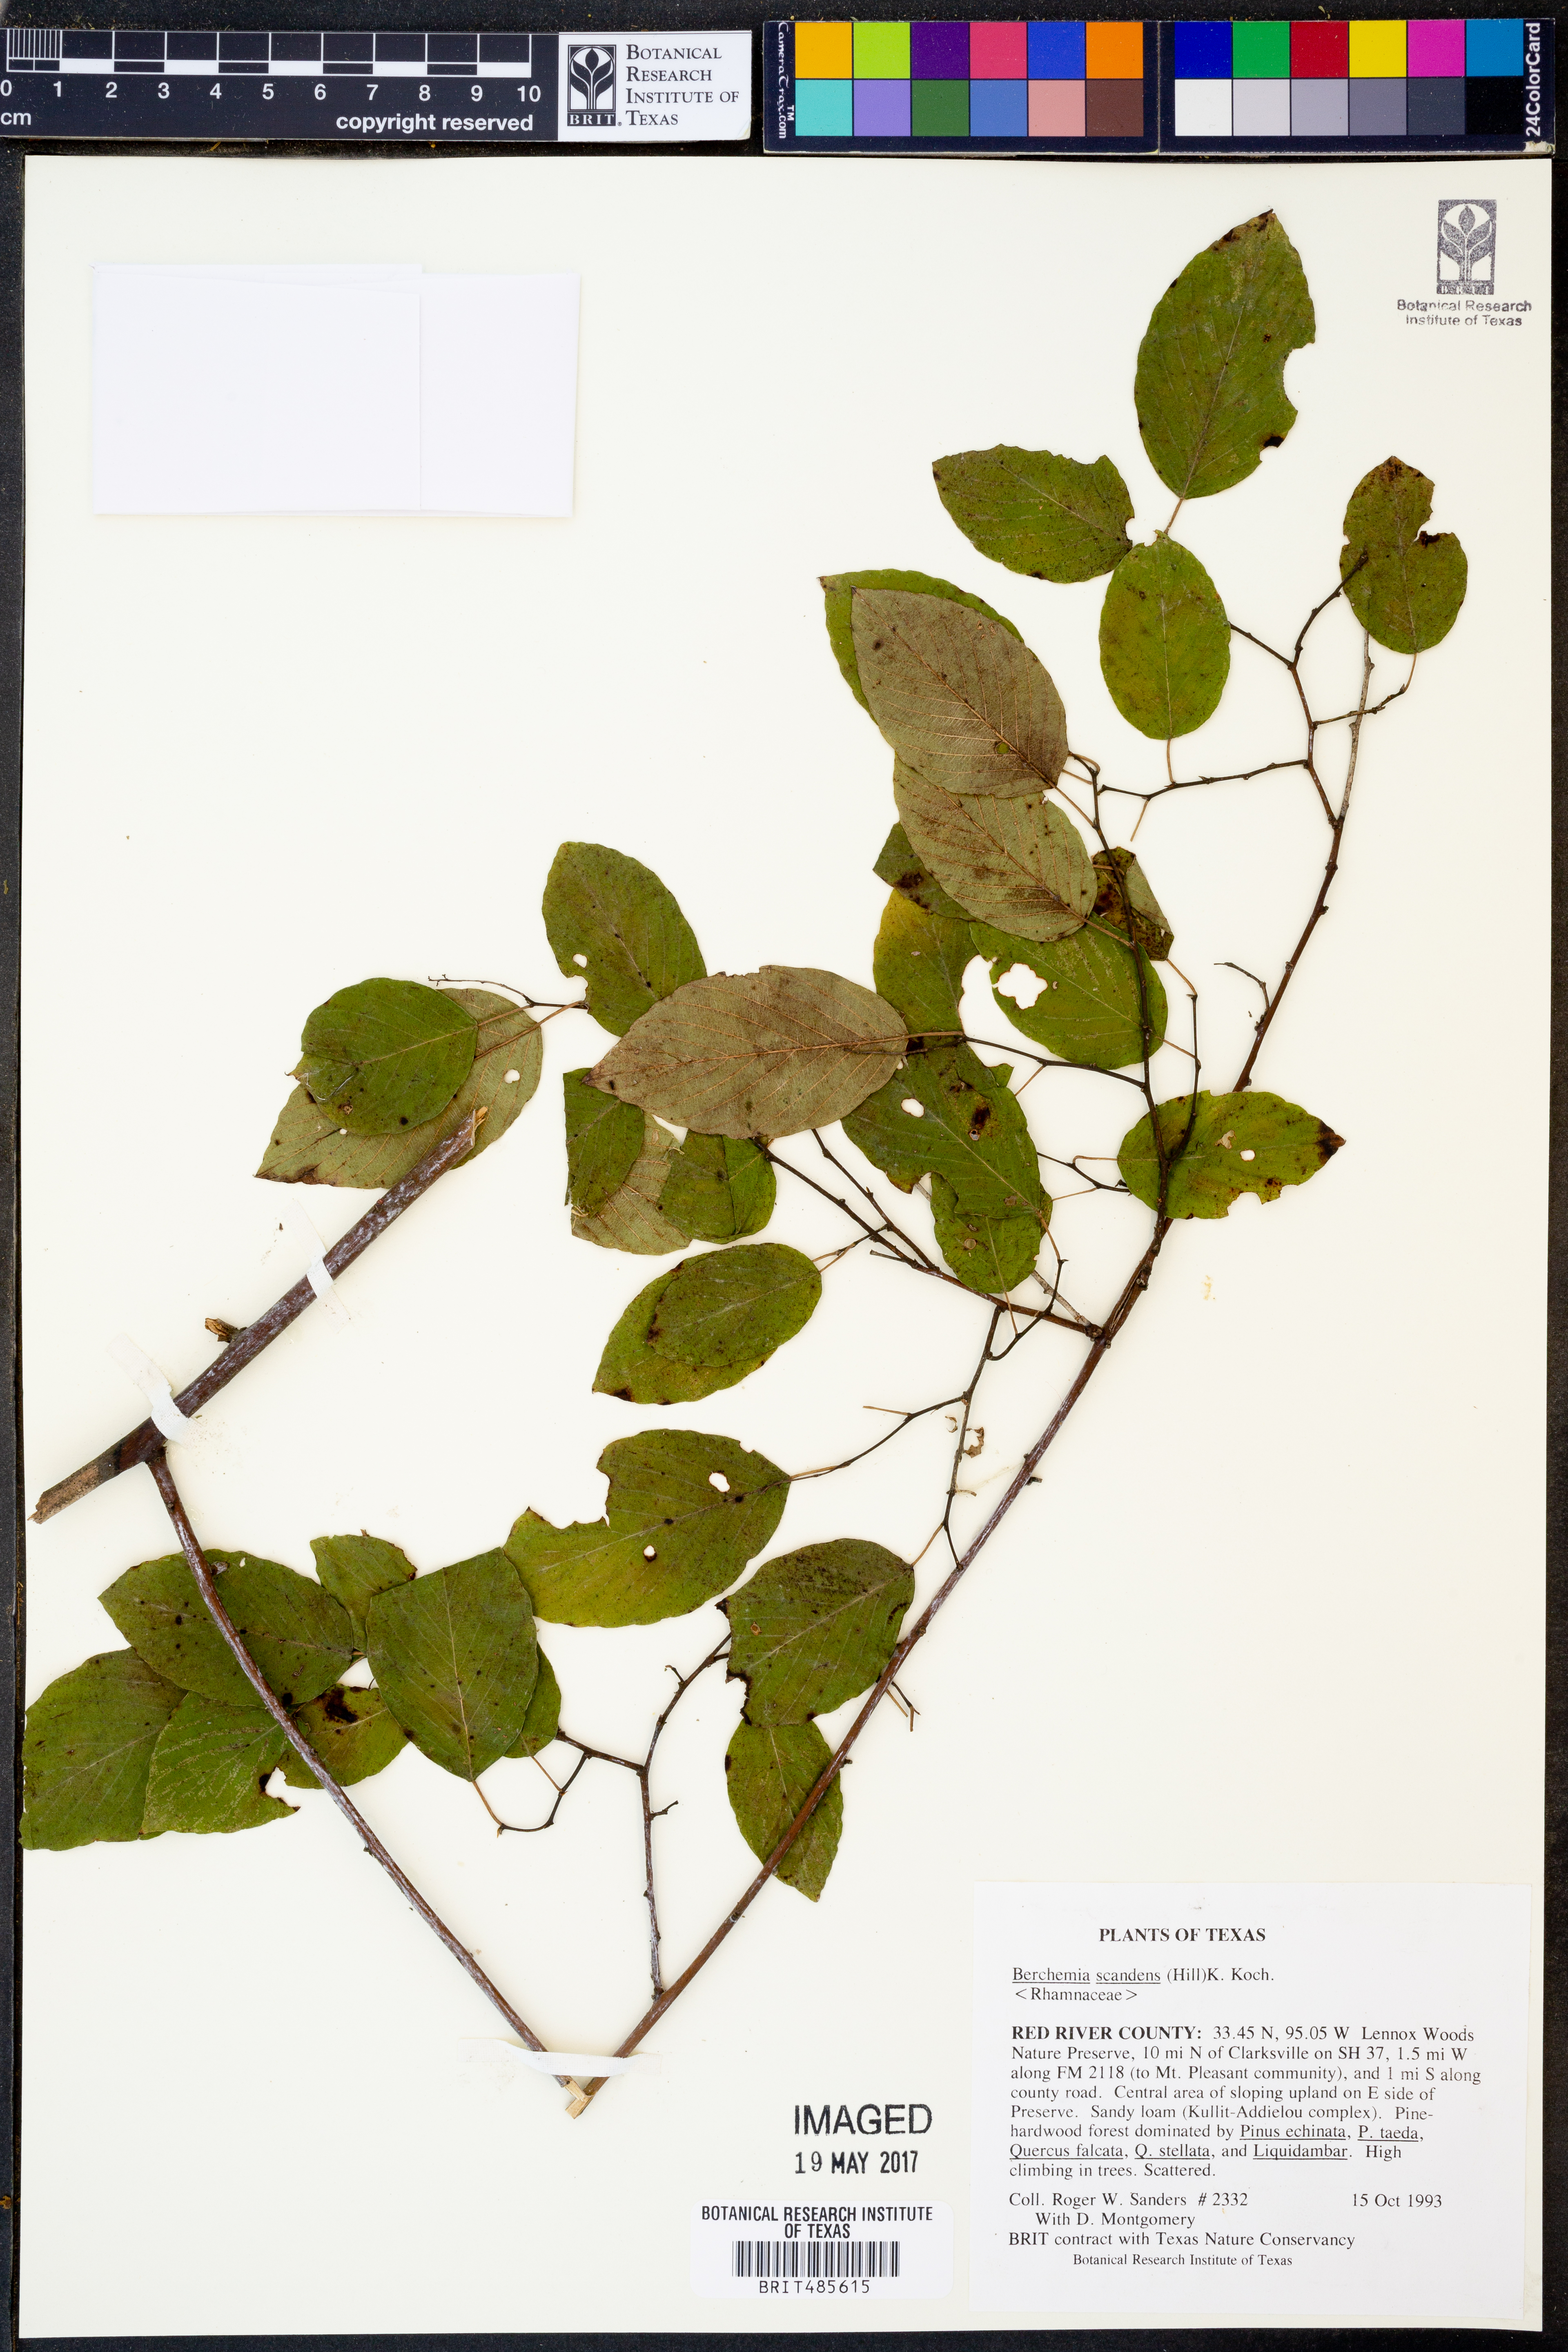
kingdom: Plantae
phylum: Tracheophyta
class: Magnoliopsida
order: Rosales
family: Rhamnaceae
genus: Berchemia
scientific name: Berchemia scandens
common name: Supplejack
